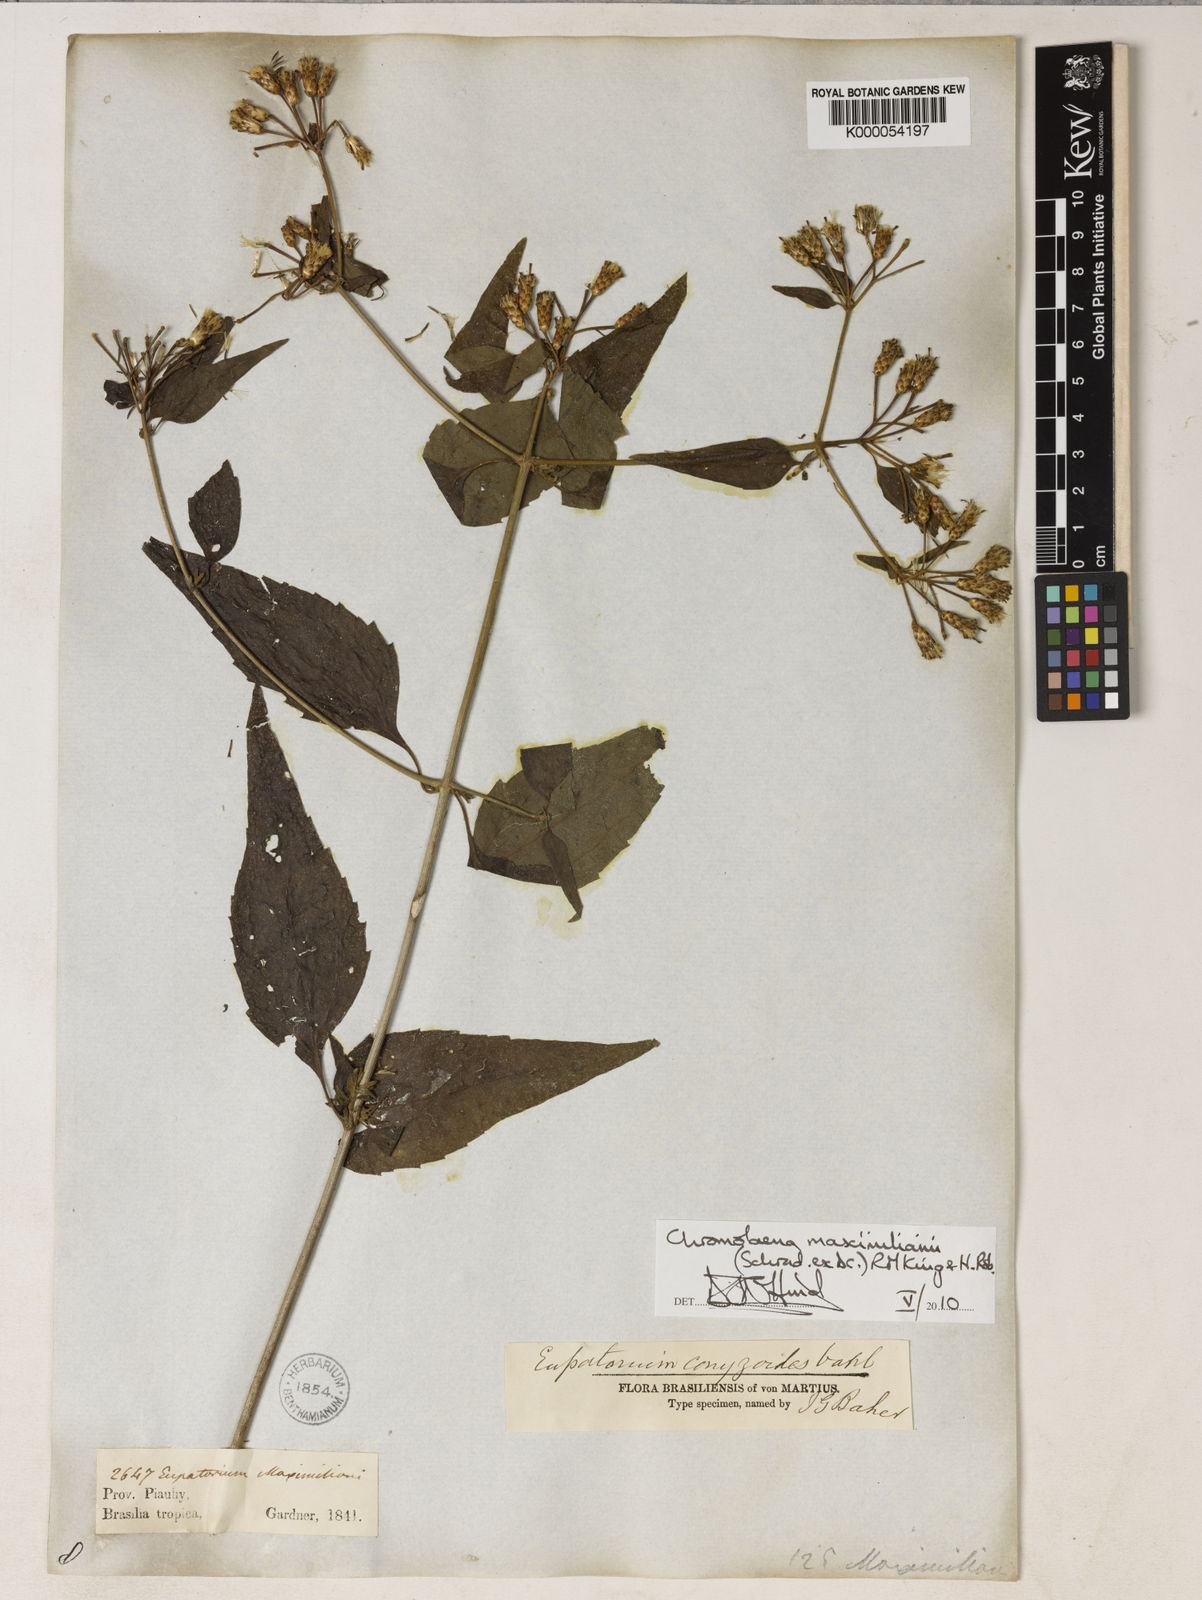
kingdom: Plantae
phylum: Tracheophyta
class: Magnoliopsida
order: Asterales
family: Asteraceae
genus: Chromolaena
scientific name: Chromolaena maximiliani
